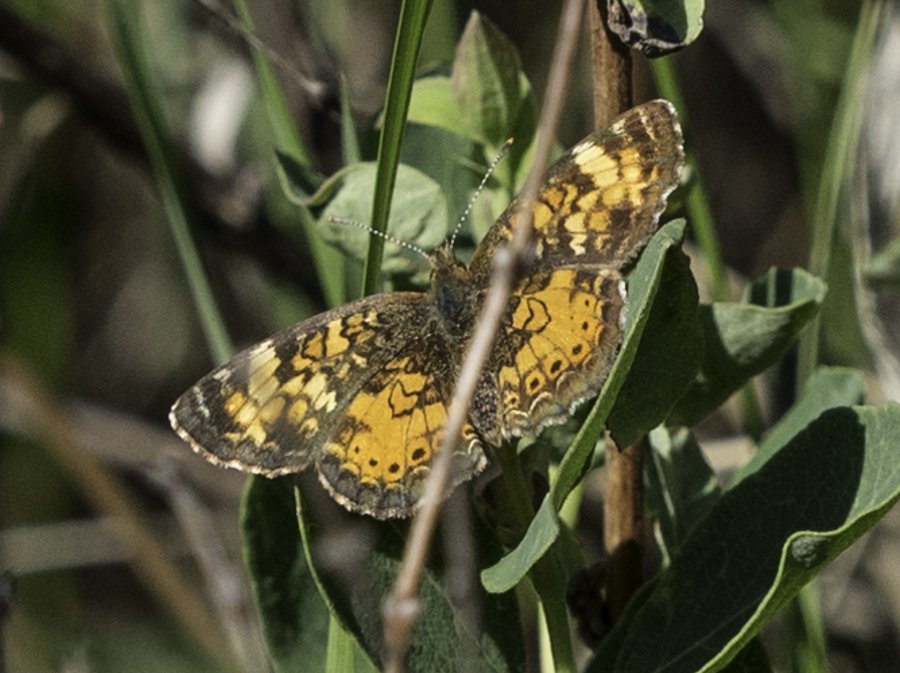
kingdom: Animalia
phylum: Arthropoda
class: Insecta
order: Lepidoptera
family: Nymphalidae
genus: Phyciodes
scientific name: Phyciodes tharos
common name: Northern Crescent
